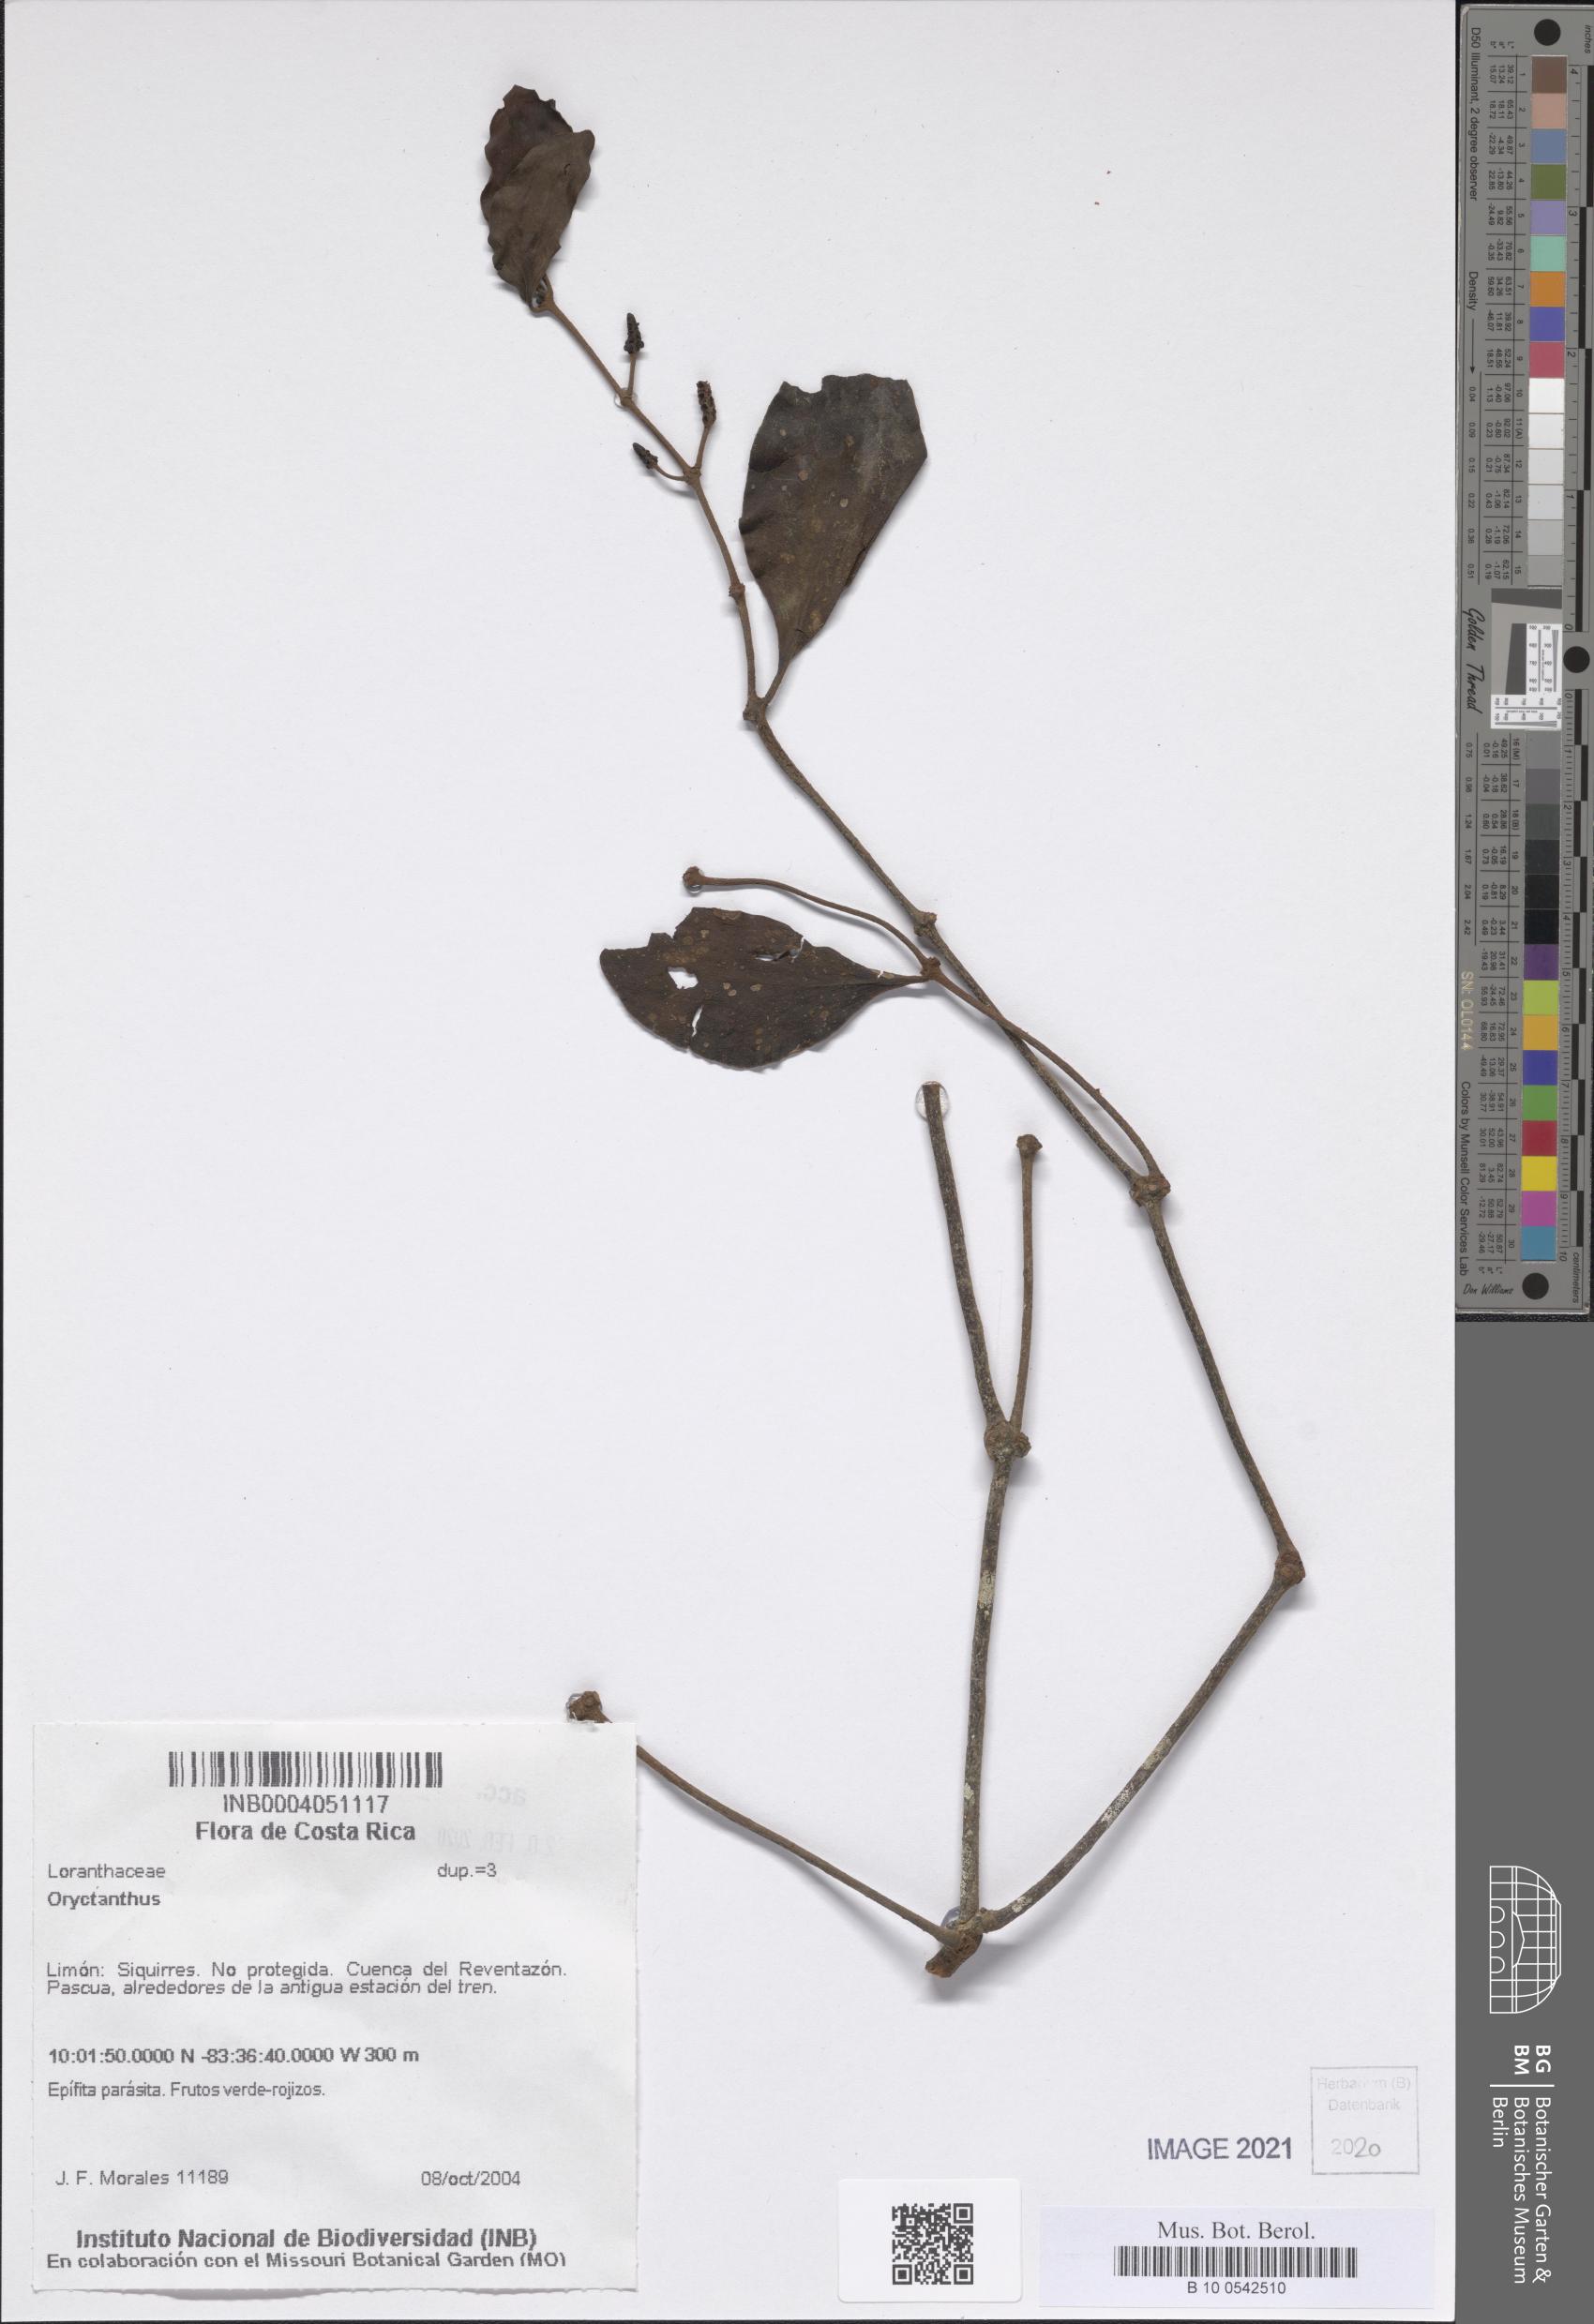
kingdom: Plantae
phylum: Tracheophyta
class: Magnoliopsida
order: Santalales
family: Loranthaceae
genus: Oryctanthus
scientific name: Oryctanthus
